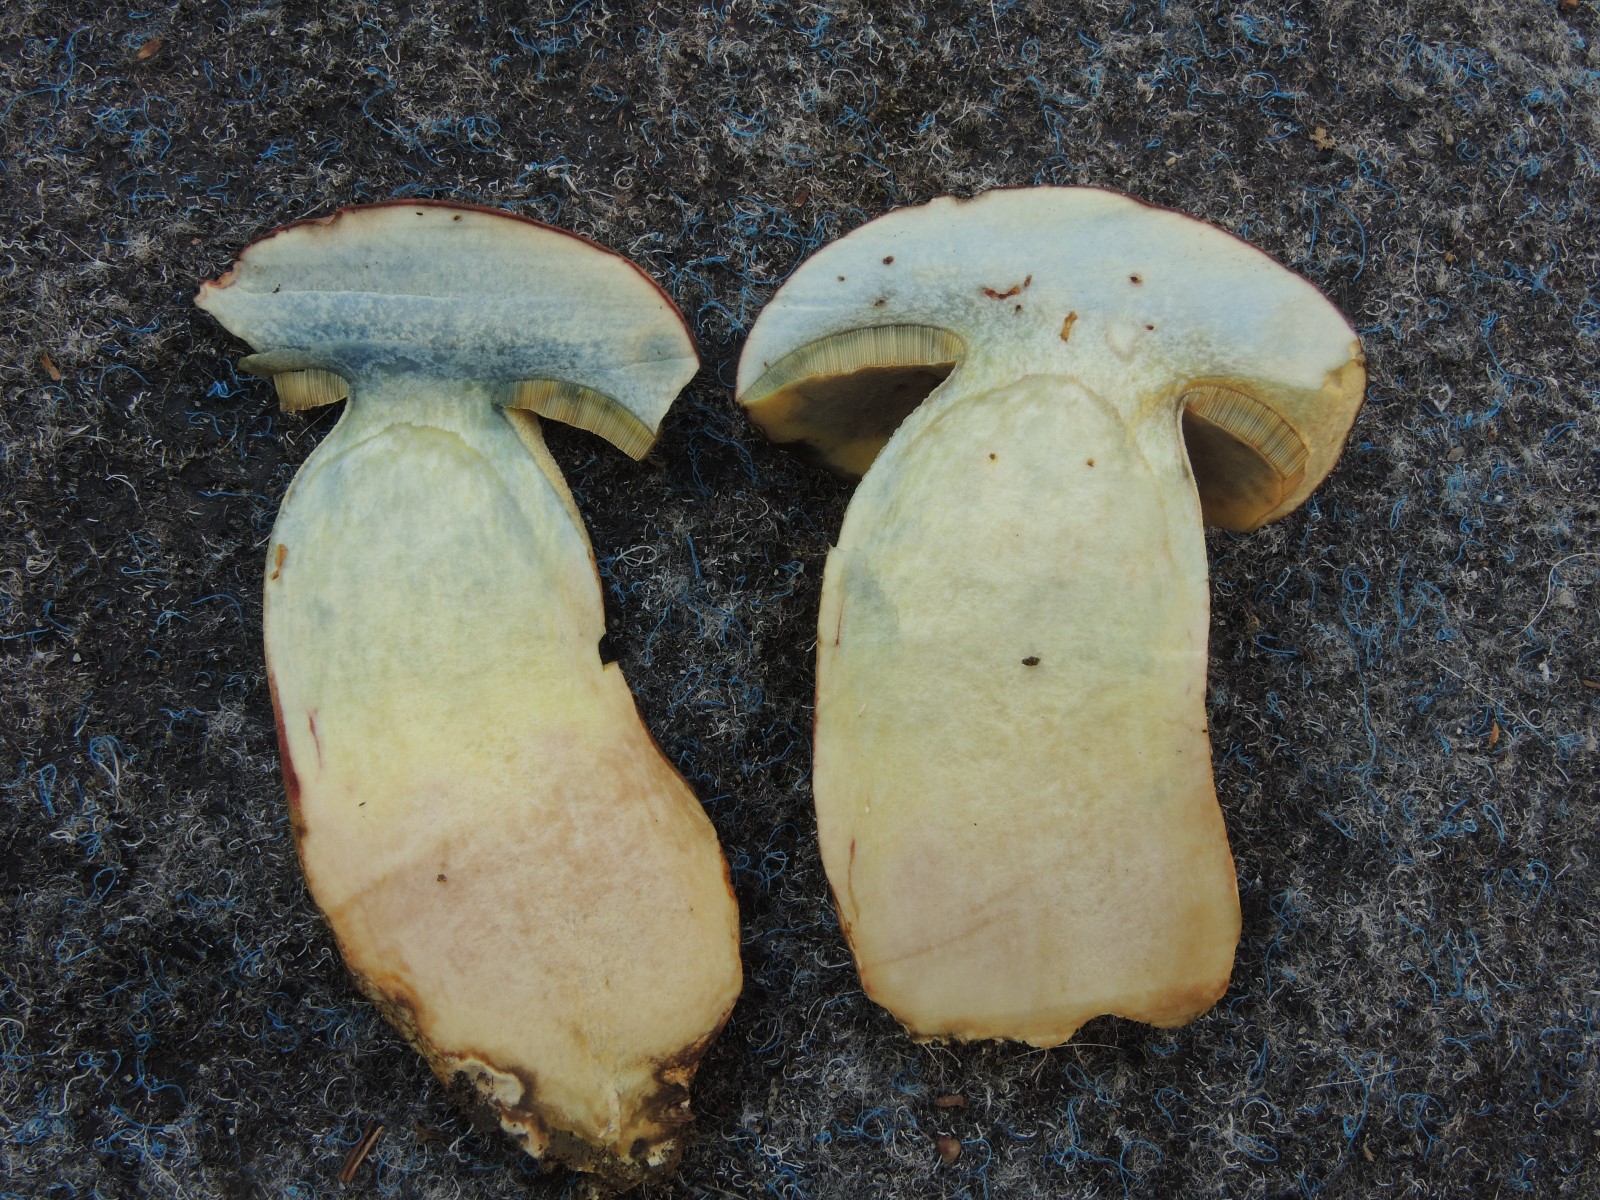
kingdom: Fungi
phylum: Basidiomycota
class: Agaricomycetes
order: Boletales
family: Boletaceae
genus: Butyriboletus
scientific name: Butyriboletus fuscoroseus
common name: brunrosa rørhat
